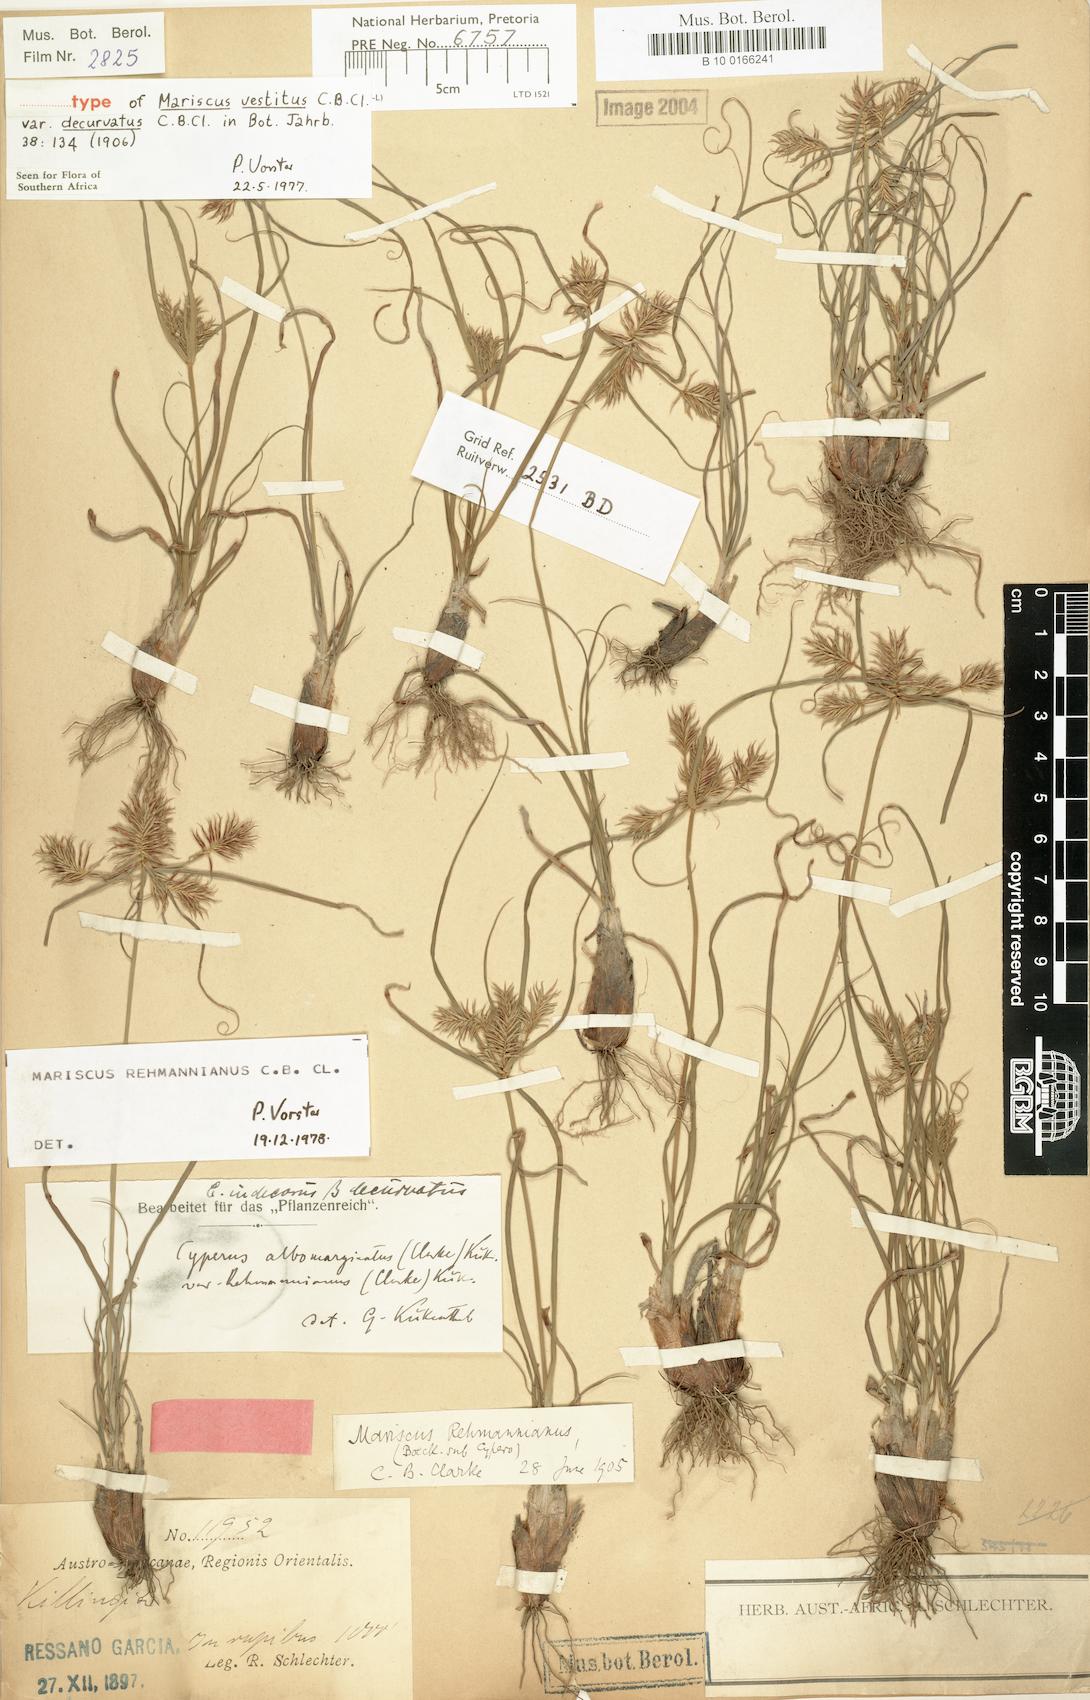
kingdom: Plantae
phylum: Tracheophyta
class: Liliopsida
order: Poales
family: Cyperaceae
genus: Cyperus
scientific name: Cyperus decurvatus
